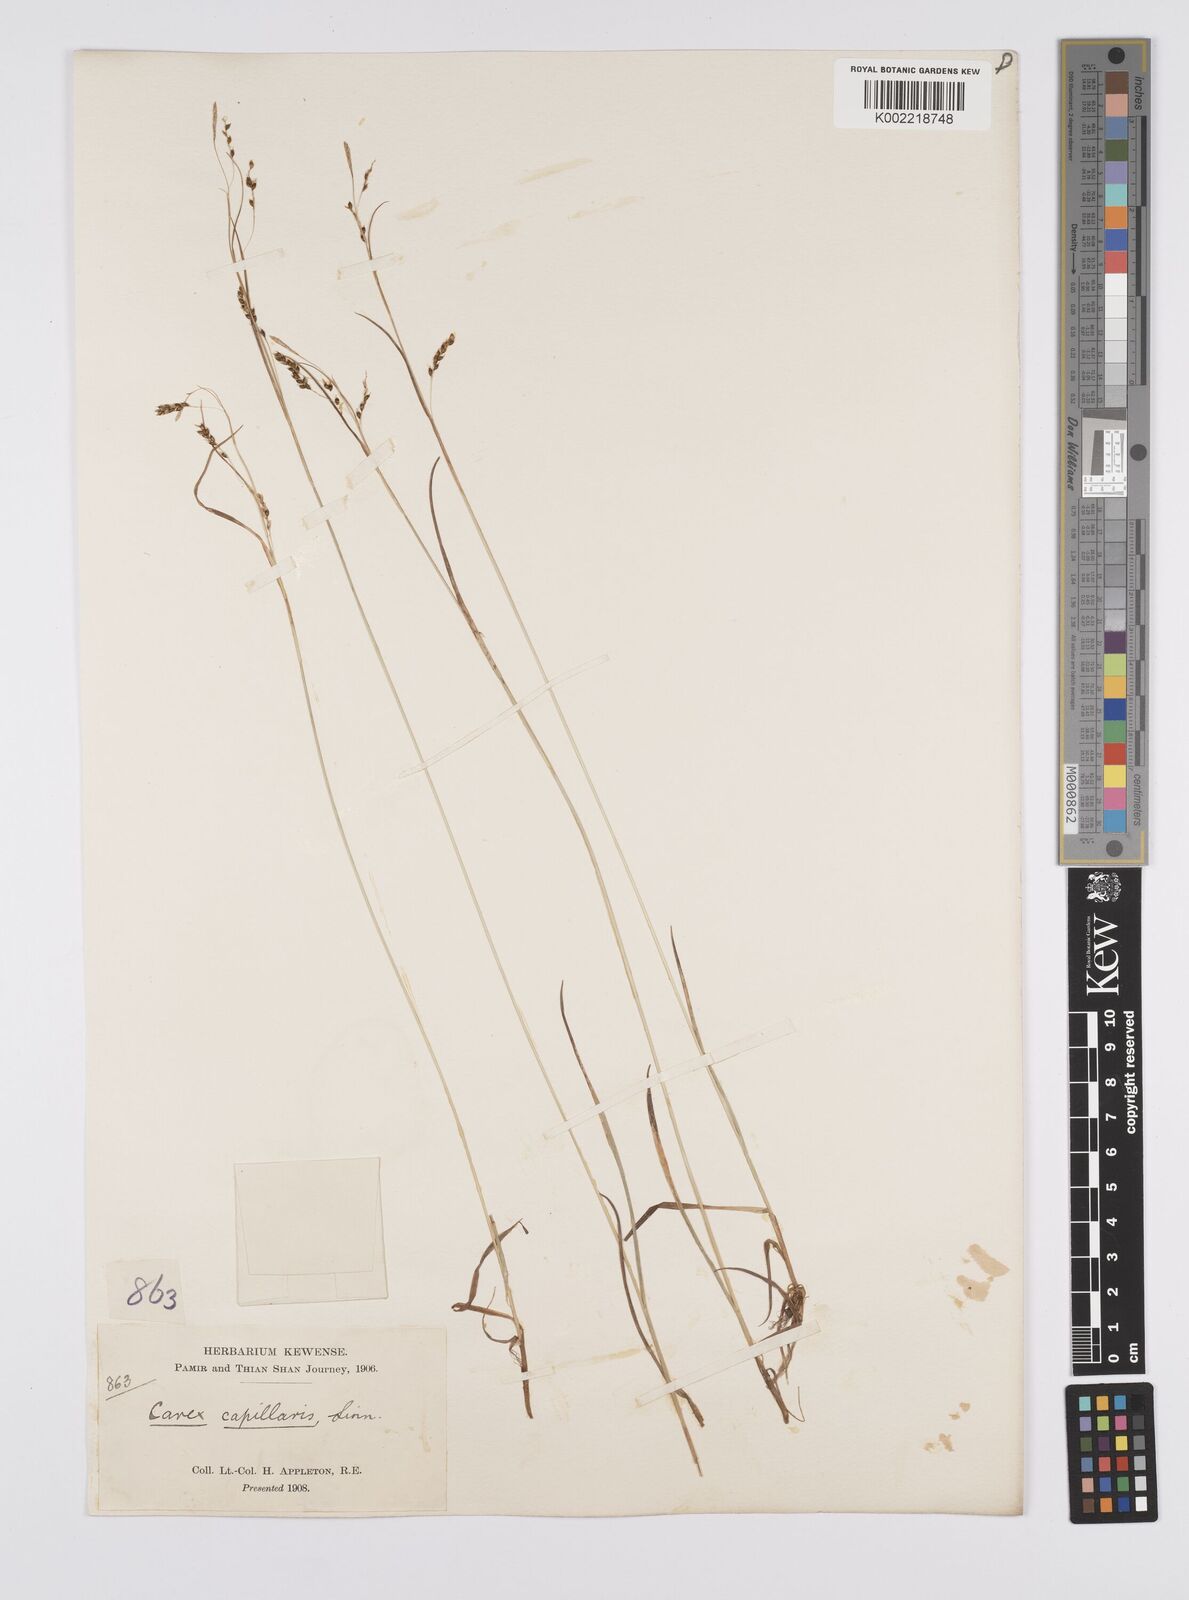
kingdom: Plantae
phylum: Tracheophyta
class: Liliopsida
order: Poales
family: Cyperaceae
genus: Carex
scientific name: Carex capillaris
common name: Hair sedge
